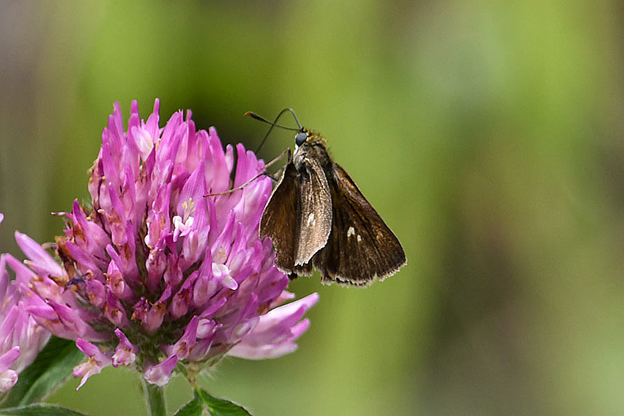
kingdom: Animalia
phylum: Arthropoda
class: Insecta
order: Lepidoptera
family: Hesperiidae
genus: Euphyes
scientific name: Euphyes vestris
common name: Dun Skipper
